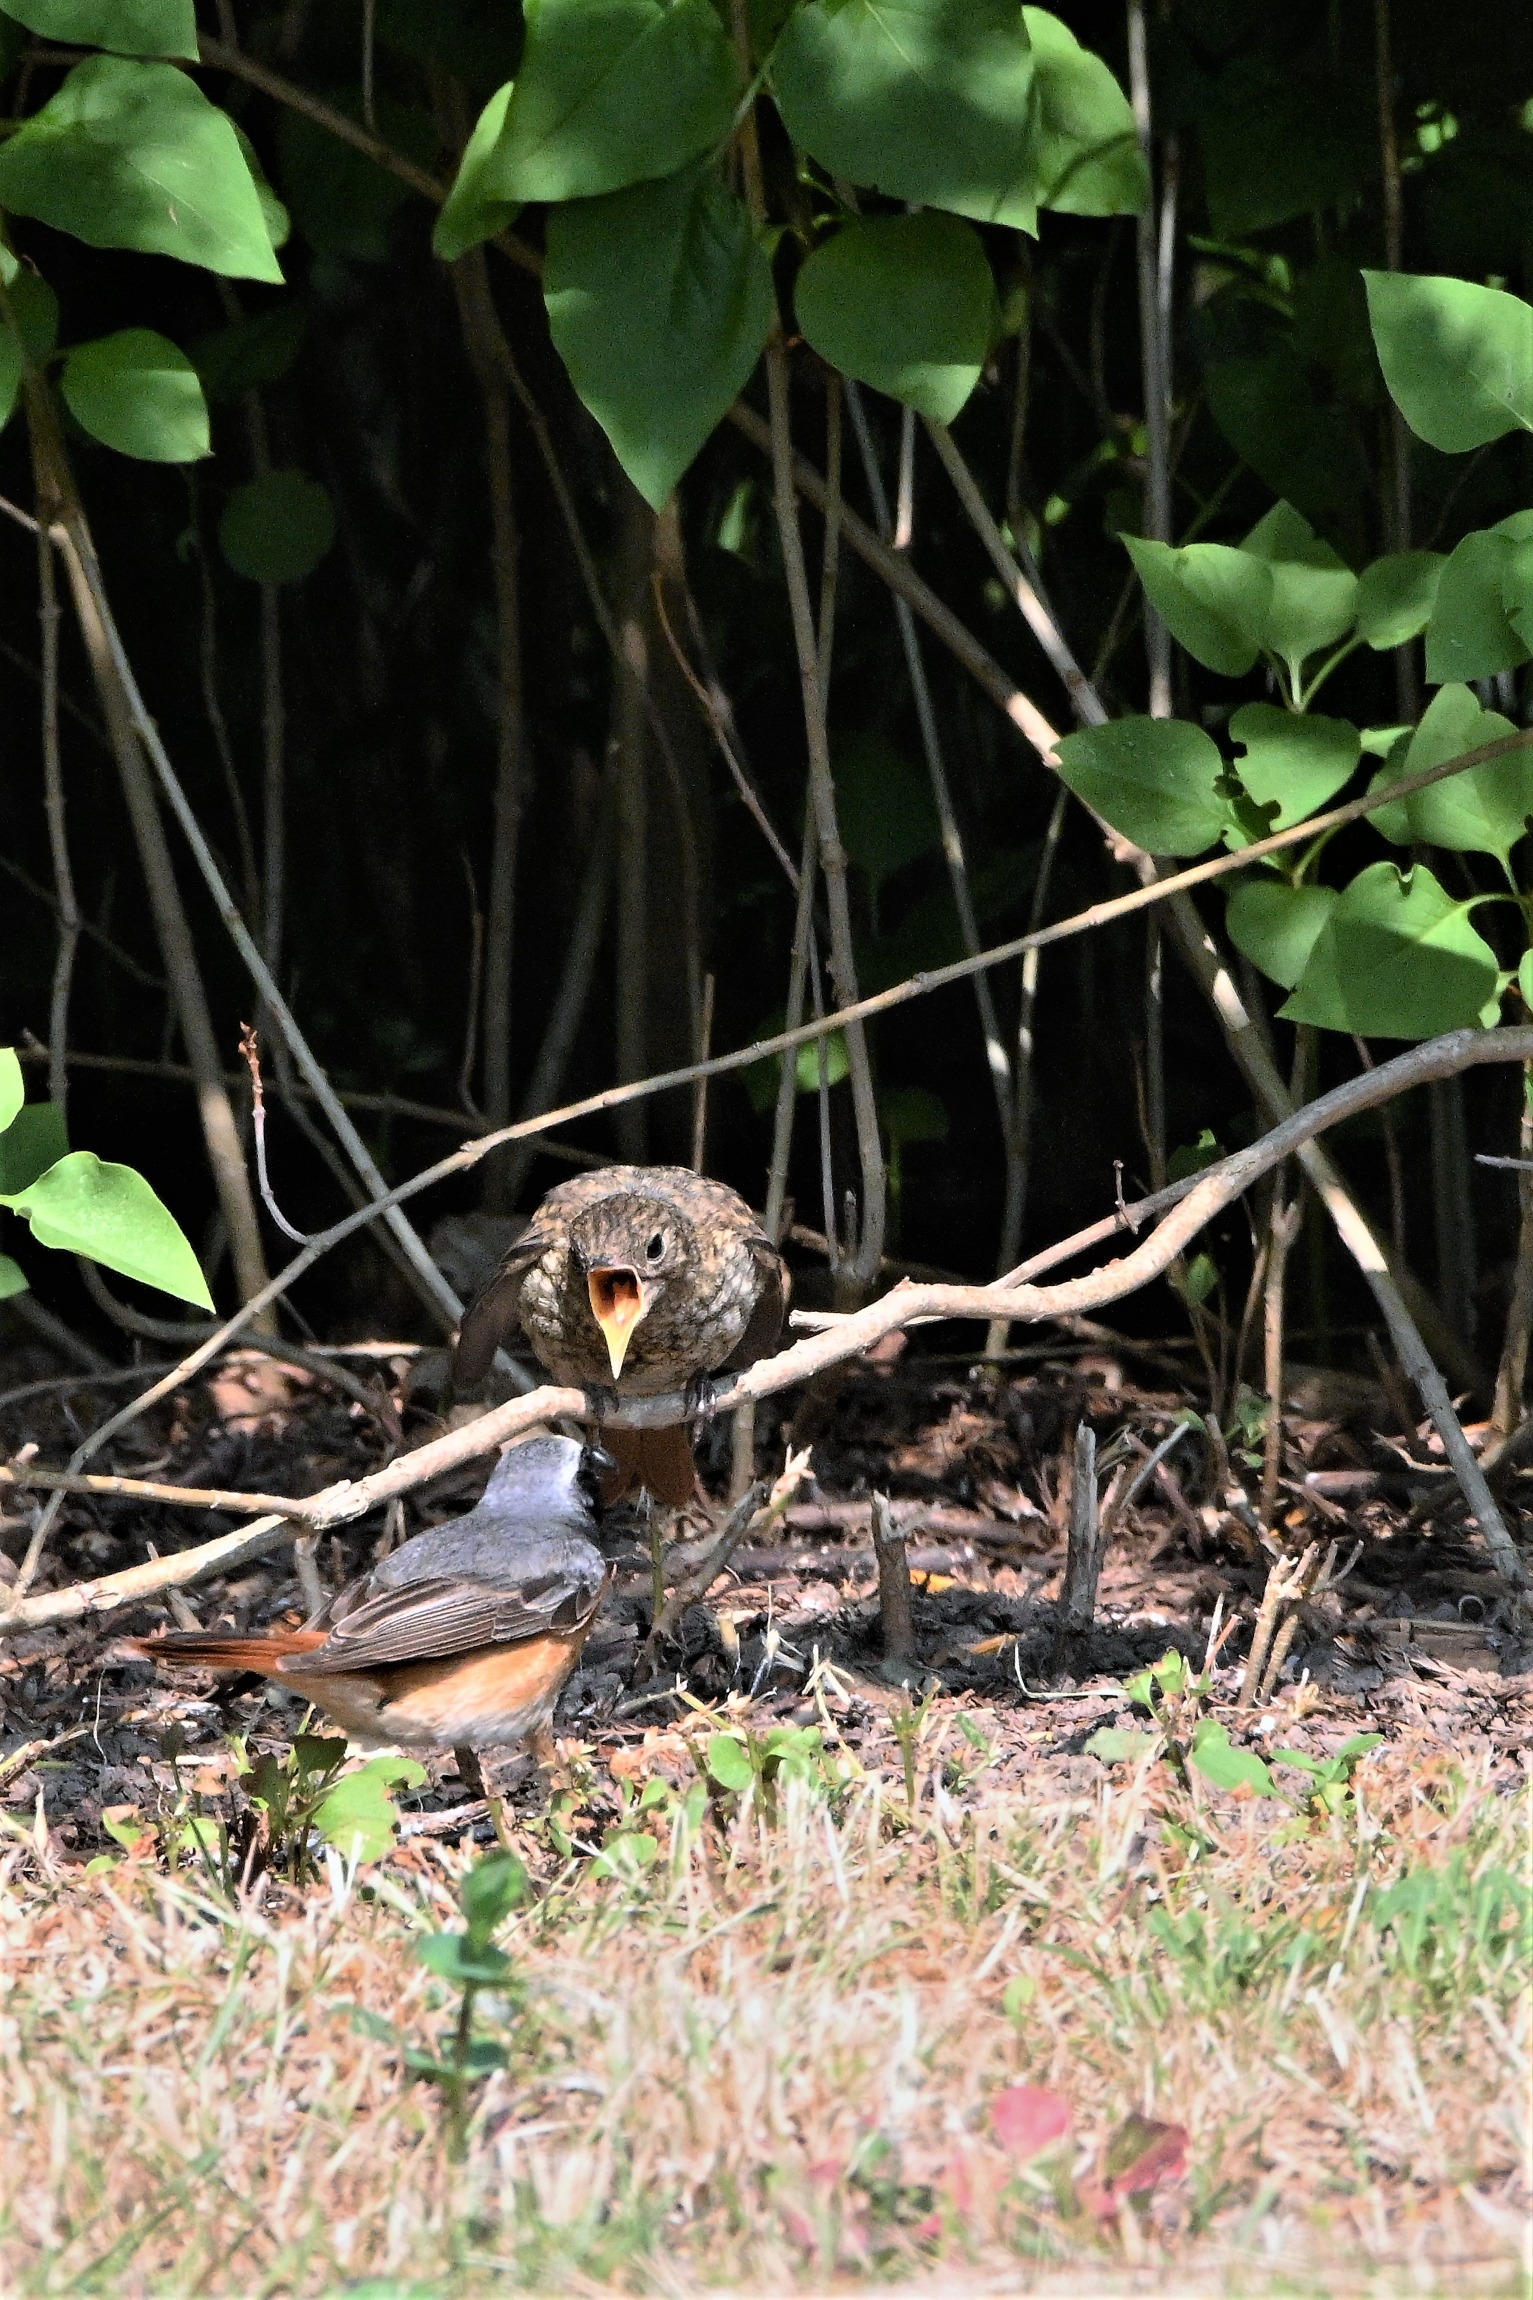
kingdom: Animalia
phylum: Chordata
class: Aves
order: Passeriformes
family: Muscicapidae
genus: Phoenicurus
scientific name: Phoenicurus phoenicurus
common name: Rødstjert
